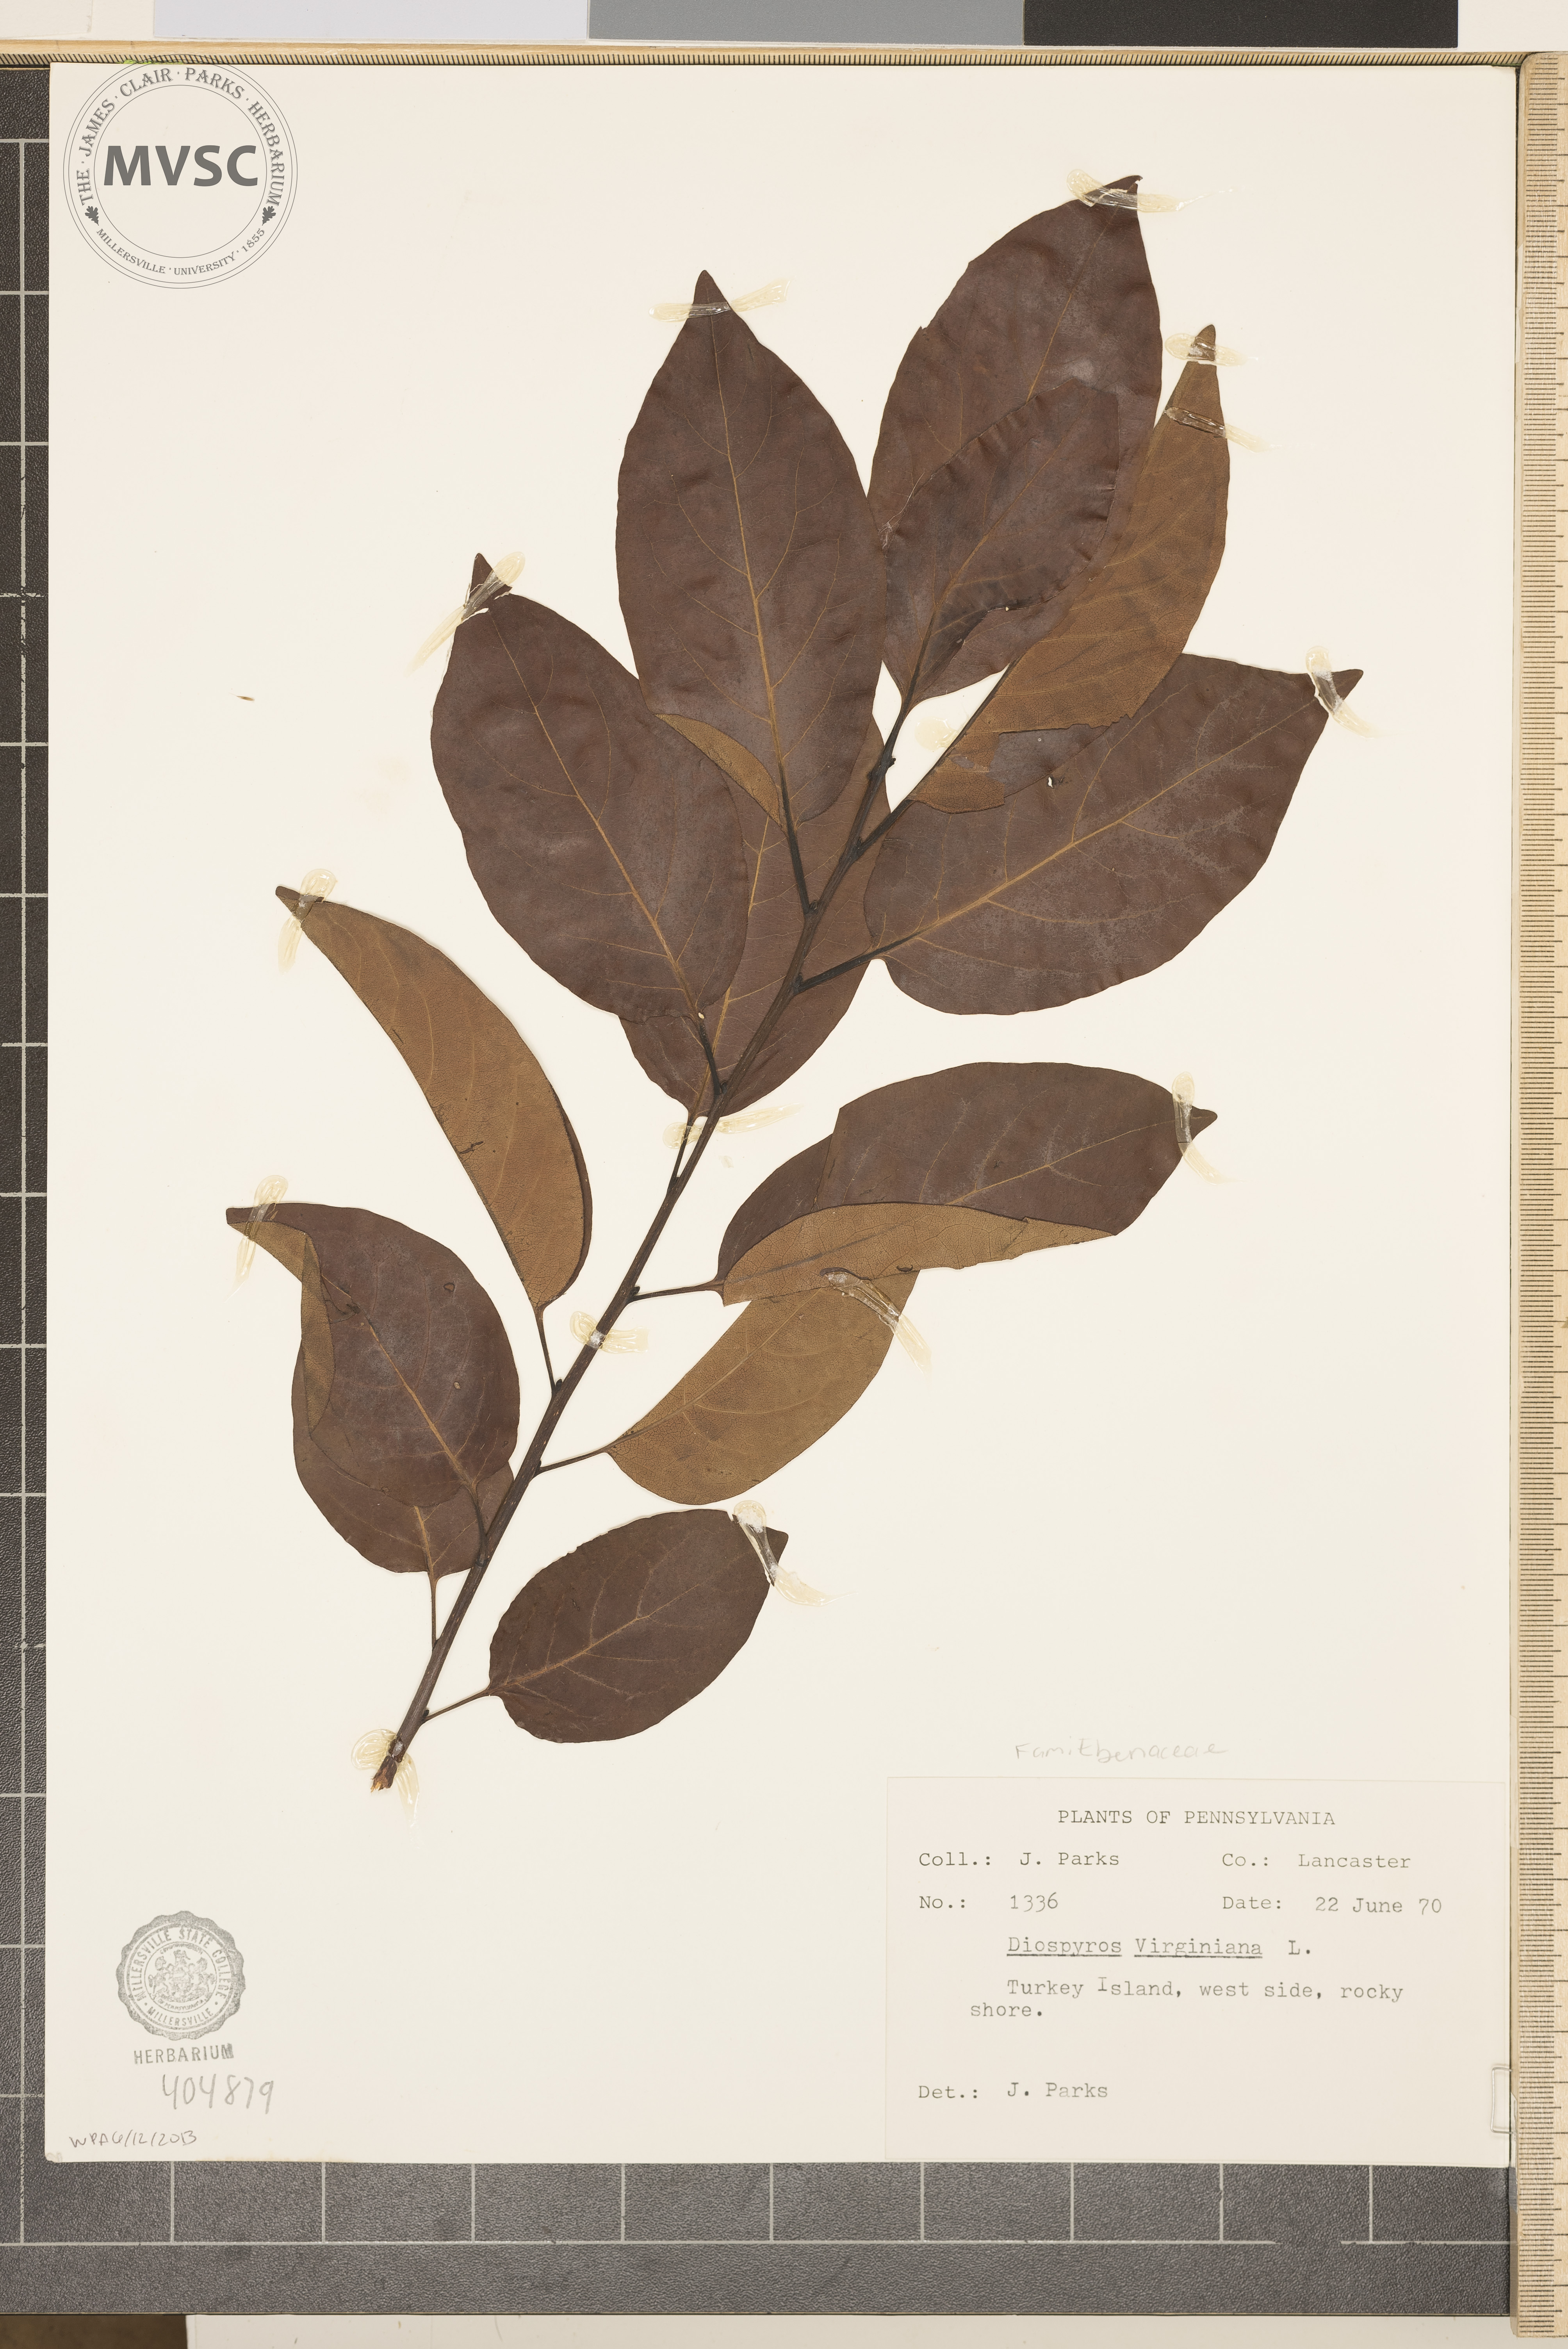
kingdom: Plantae
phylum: Tracheophyta
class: Magnoliopsida
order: Ericales
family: Ebenaceae
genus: Diospyros
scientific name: Diospyros virginiana
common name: Persimmon
